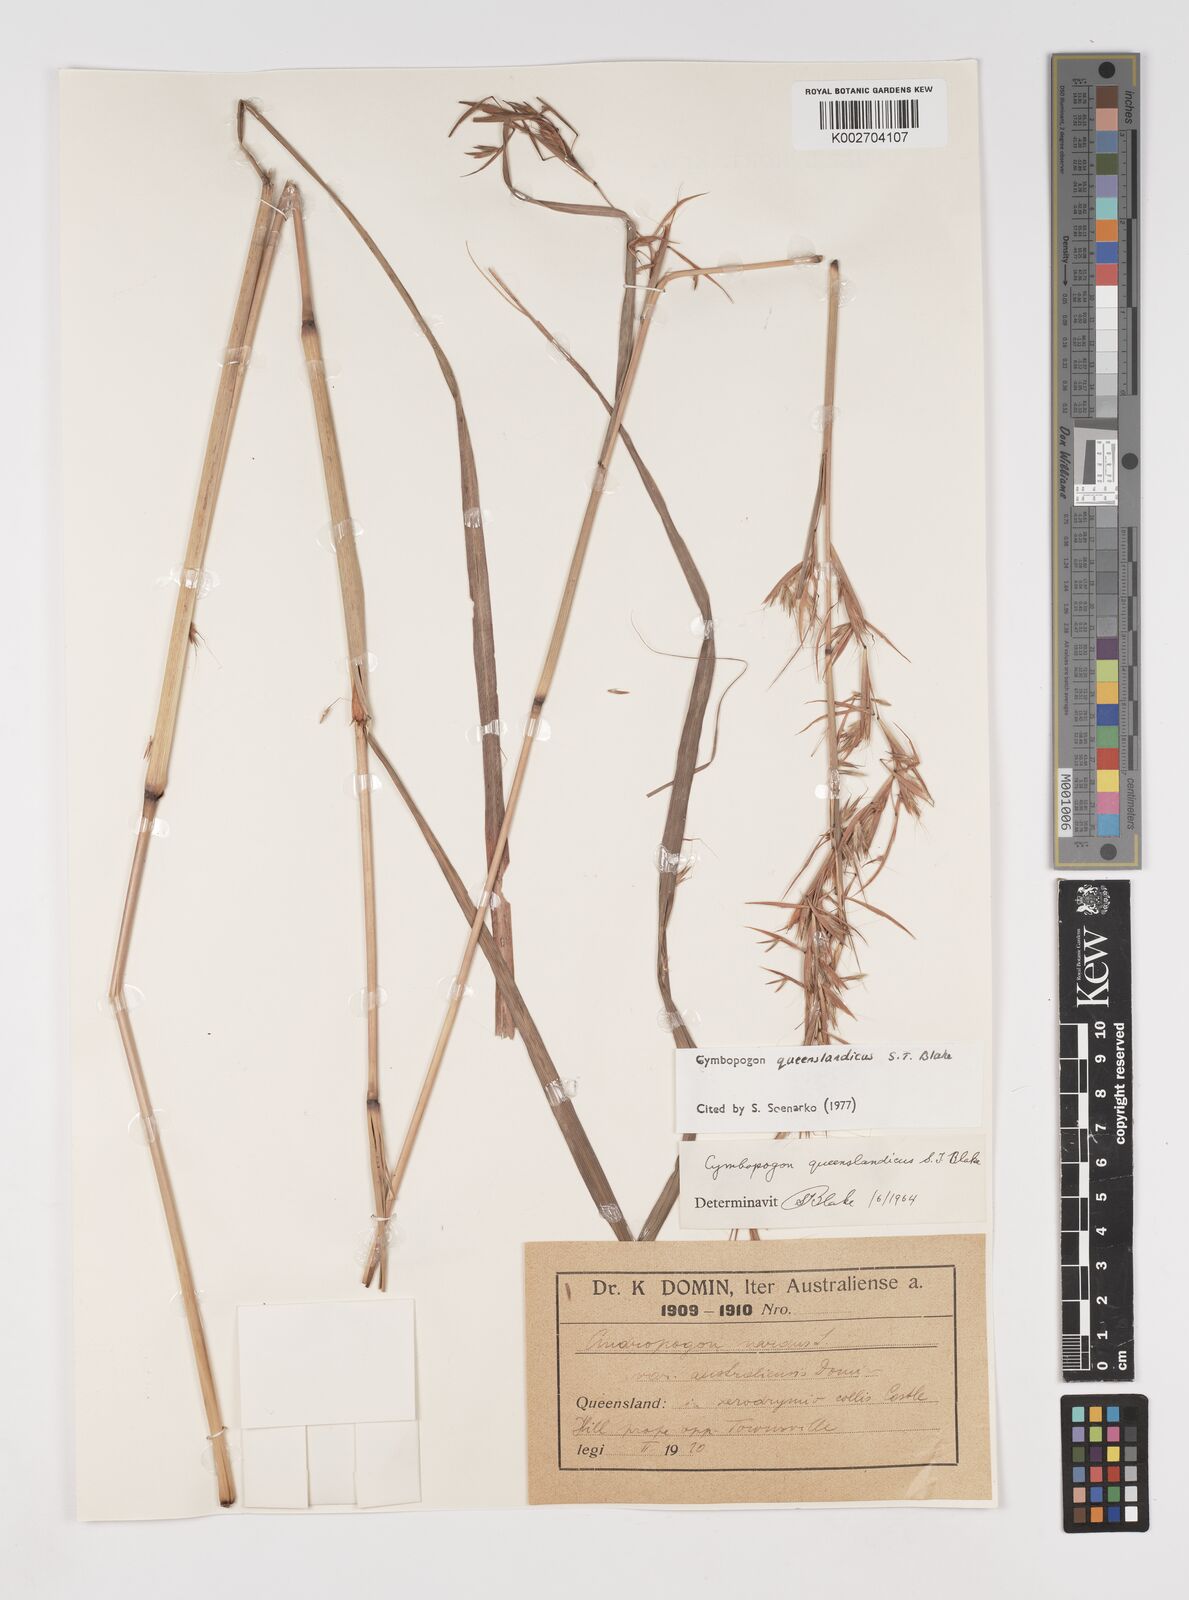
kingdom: Plantae
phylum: Tracheophyta
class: Liliopsida
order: Poales
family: Poaceae
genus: Cymbopogon
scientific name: Cymbopogon queenslandicus
